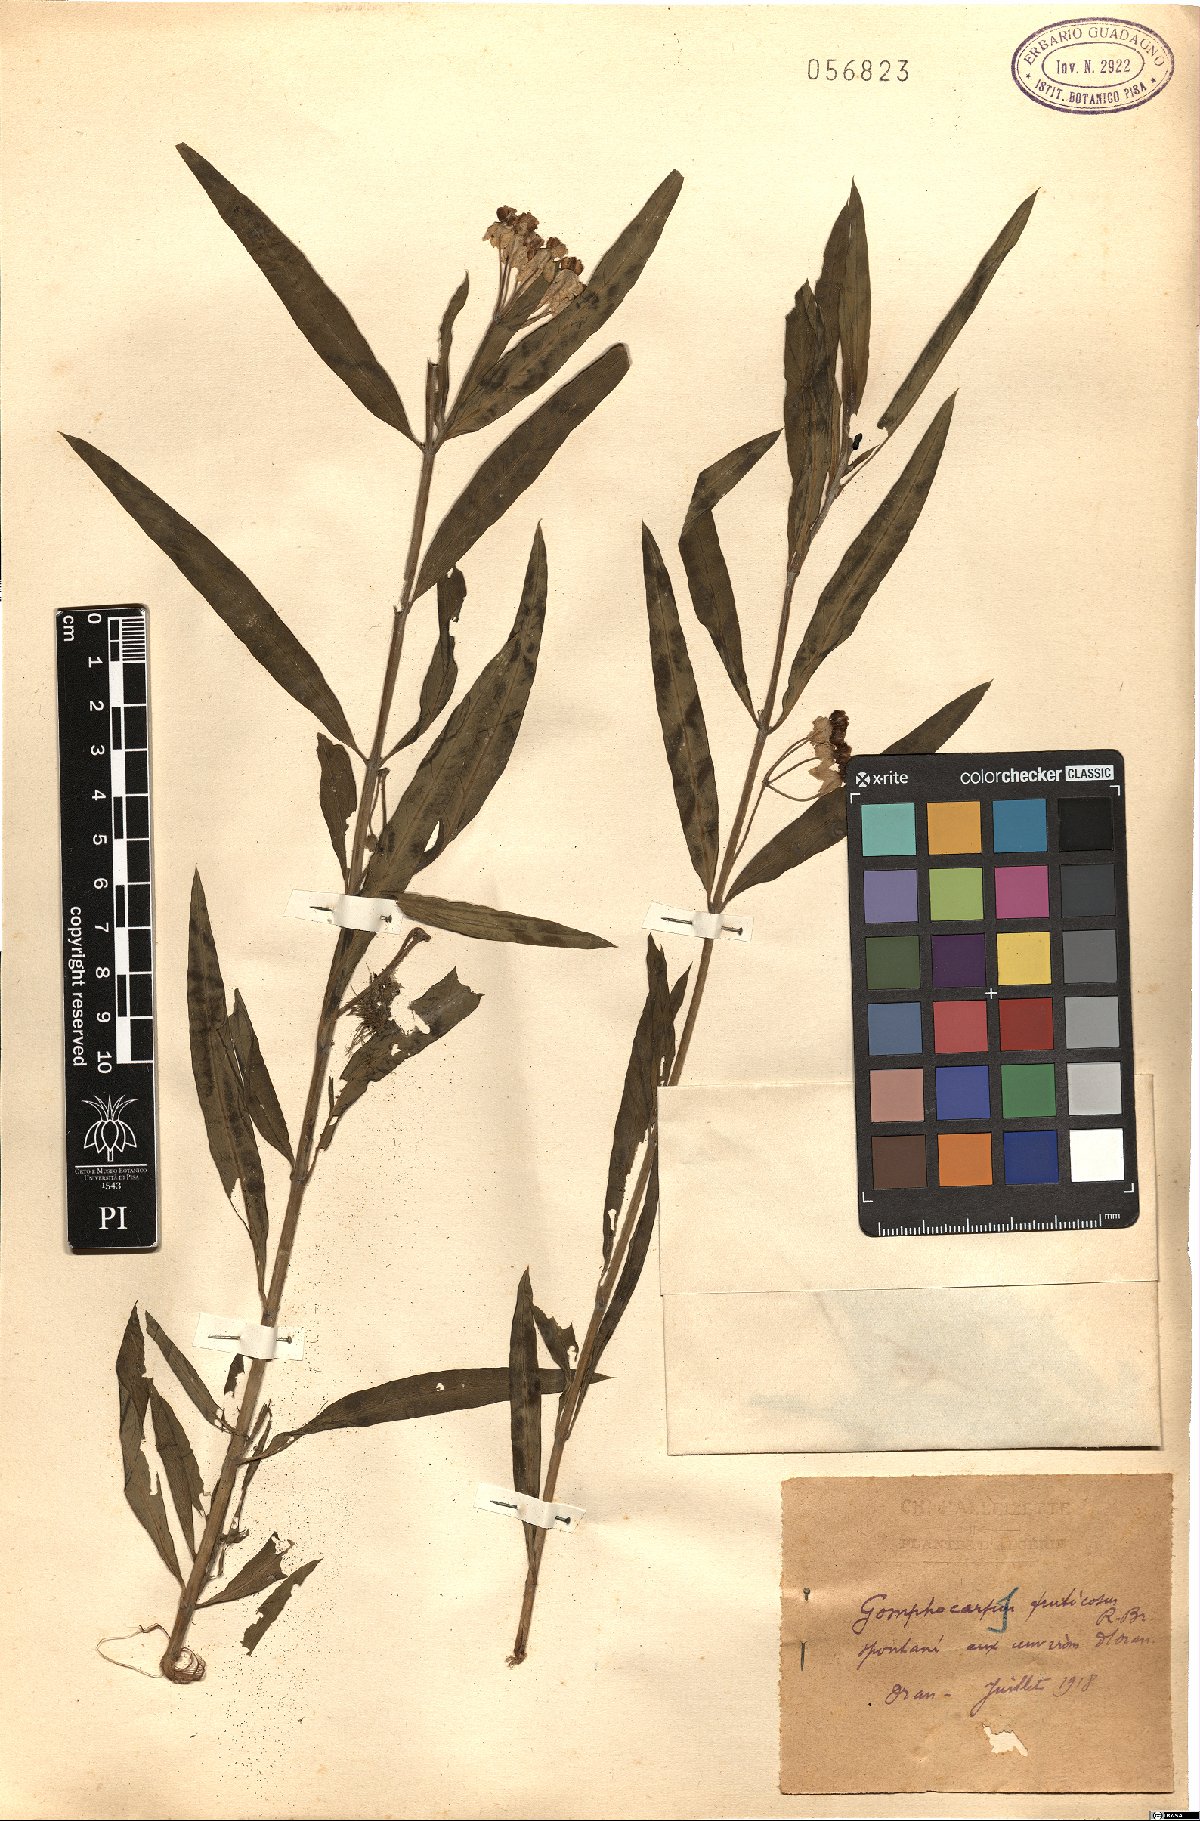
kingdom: Plantae
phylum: Tracheophyta
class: Magnoliopsida
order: Gentianales
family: Apocynaceae
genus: Gomphocarpus
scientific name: Gomphocarpus fruticosus
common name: Milkweed
